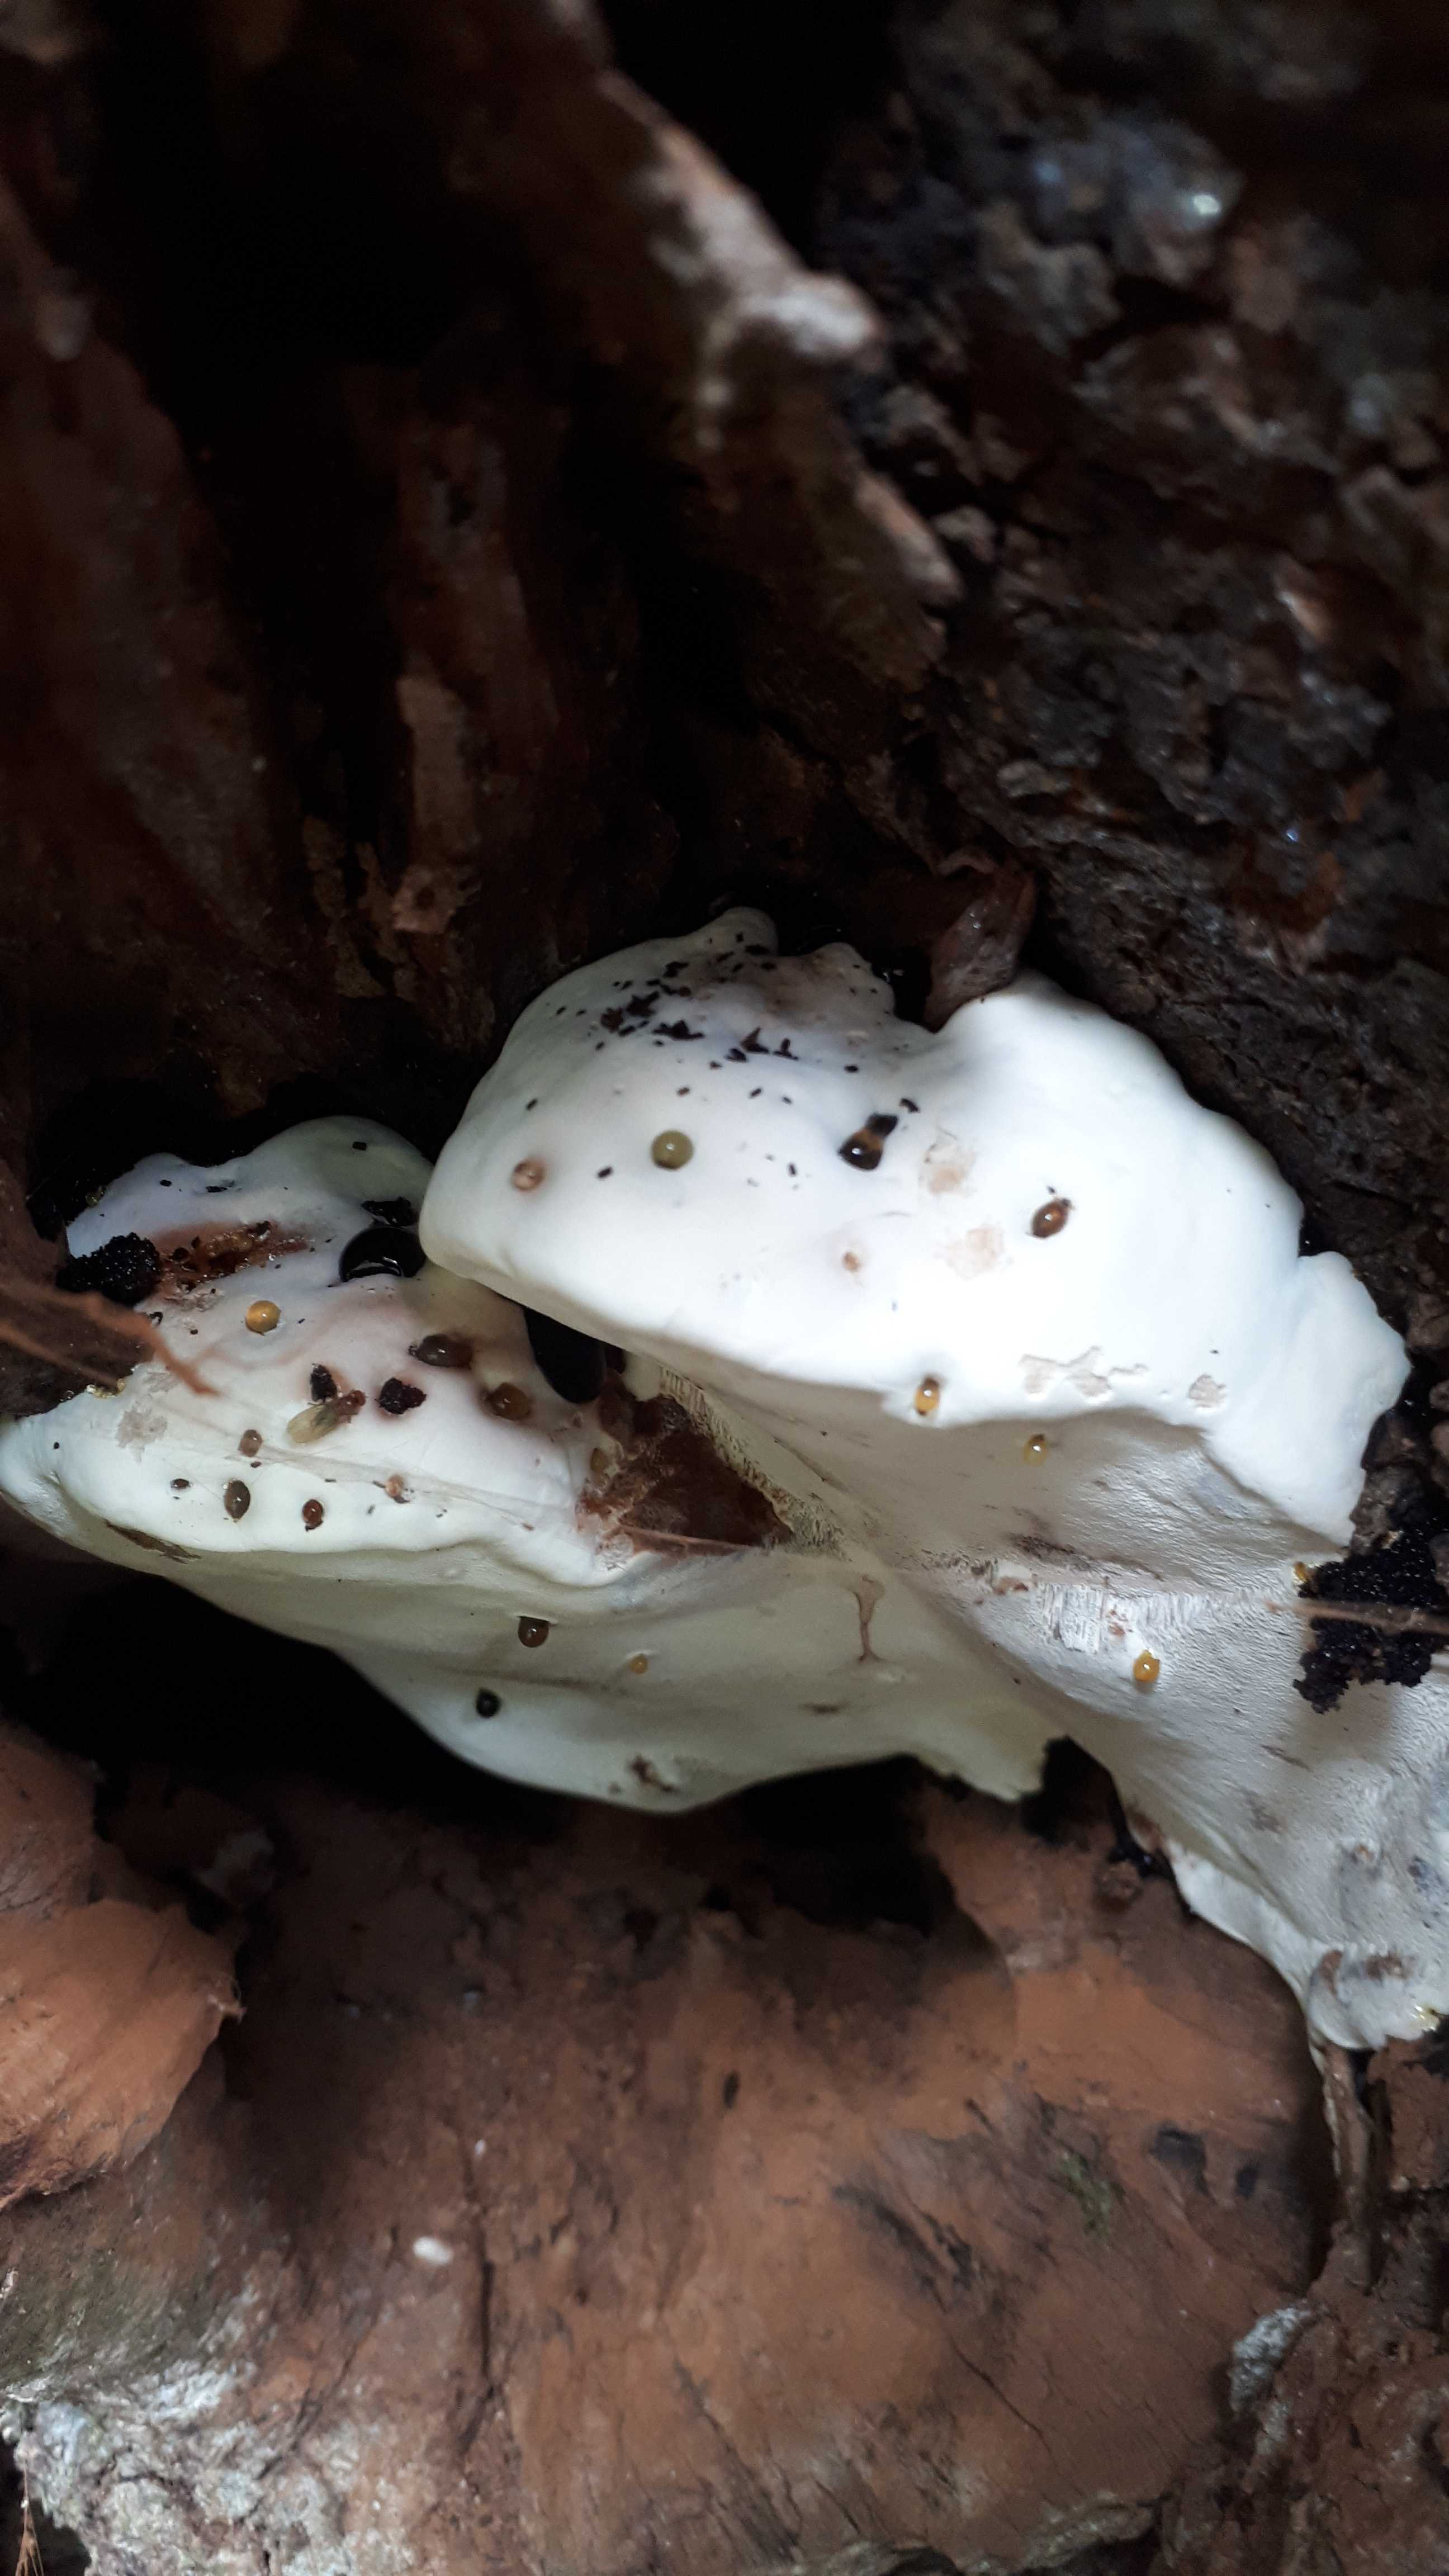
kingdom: Fungi
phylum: Basidiomycota
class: Agaricomycetes
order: Polyporales
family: Polyporaceae
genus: Ganoderma
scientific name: Ganoderma
